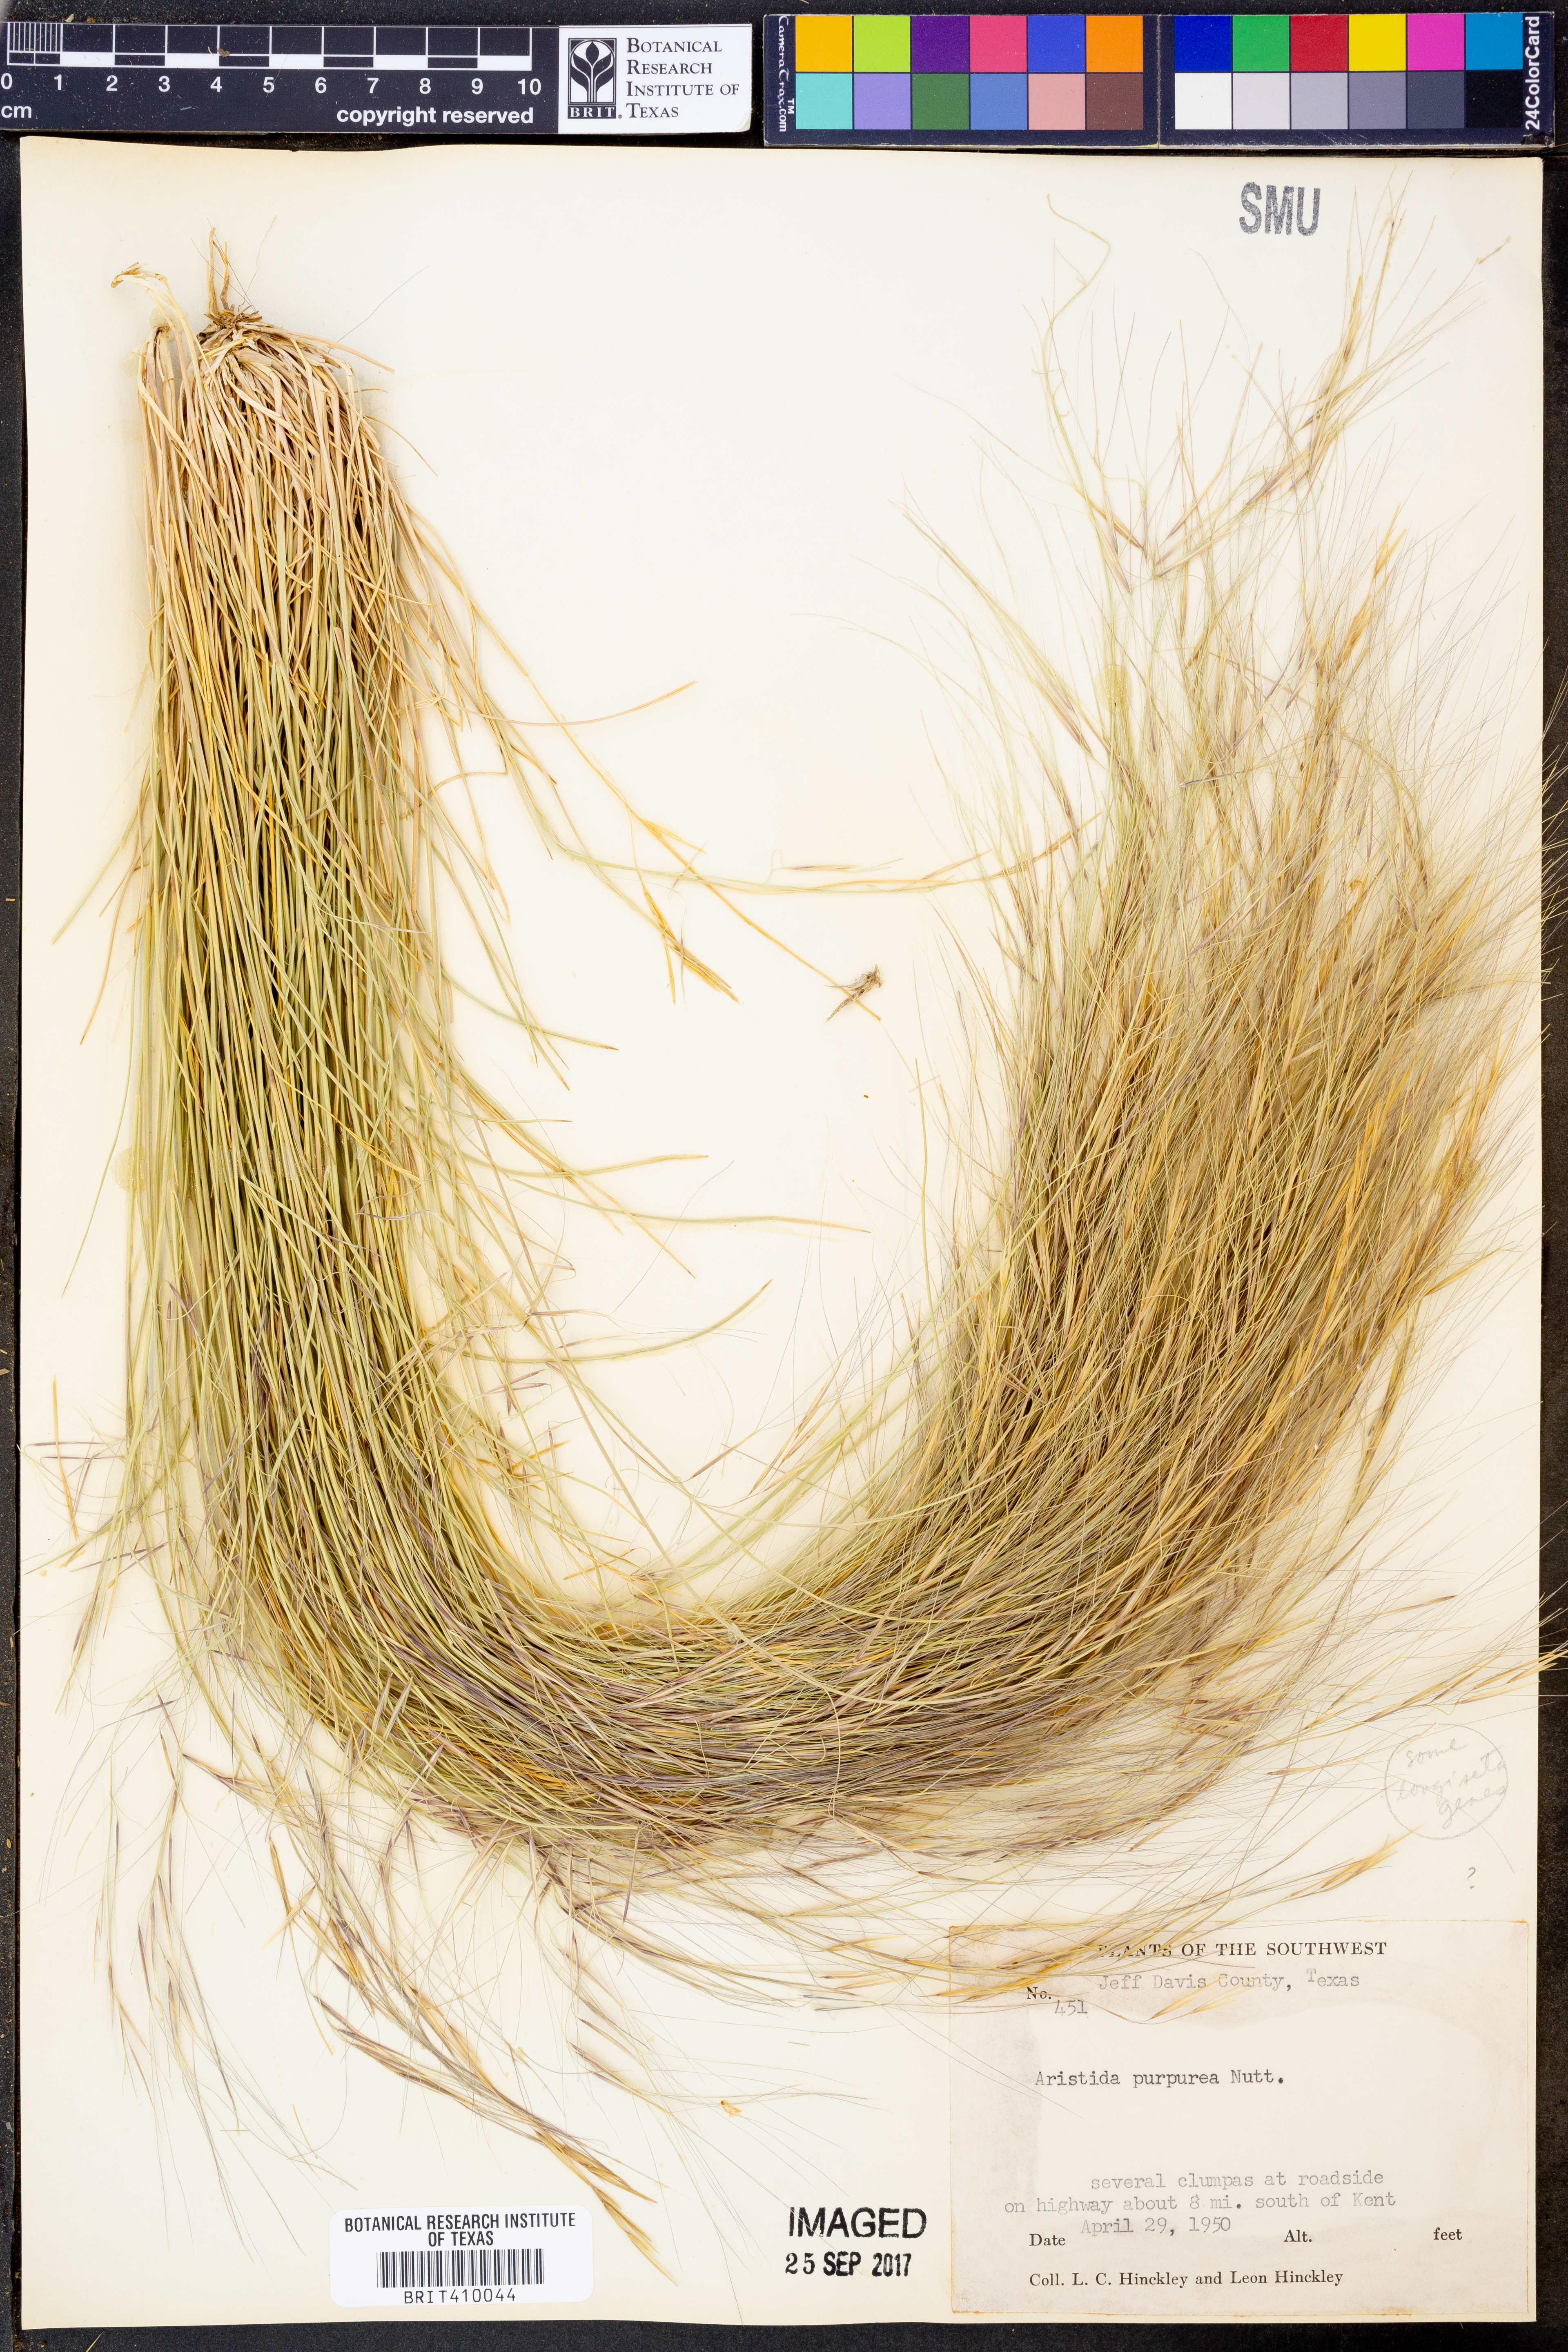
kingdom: Plantae
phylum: Tracheophyta
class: Liliopsida
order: Poales
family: Poaceae
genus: Aristida
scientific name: Aristida purpurea
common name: Purple threeawn
